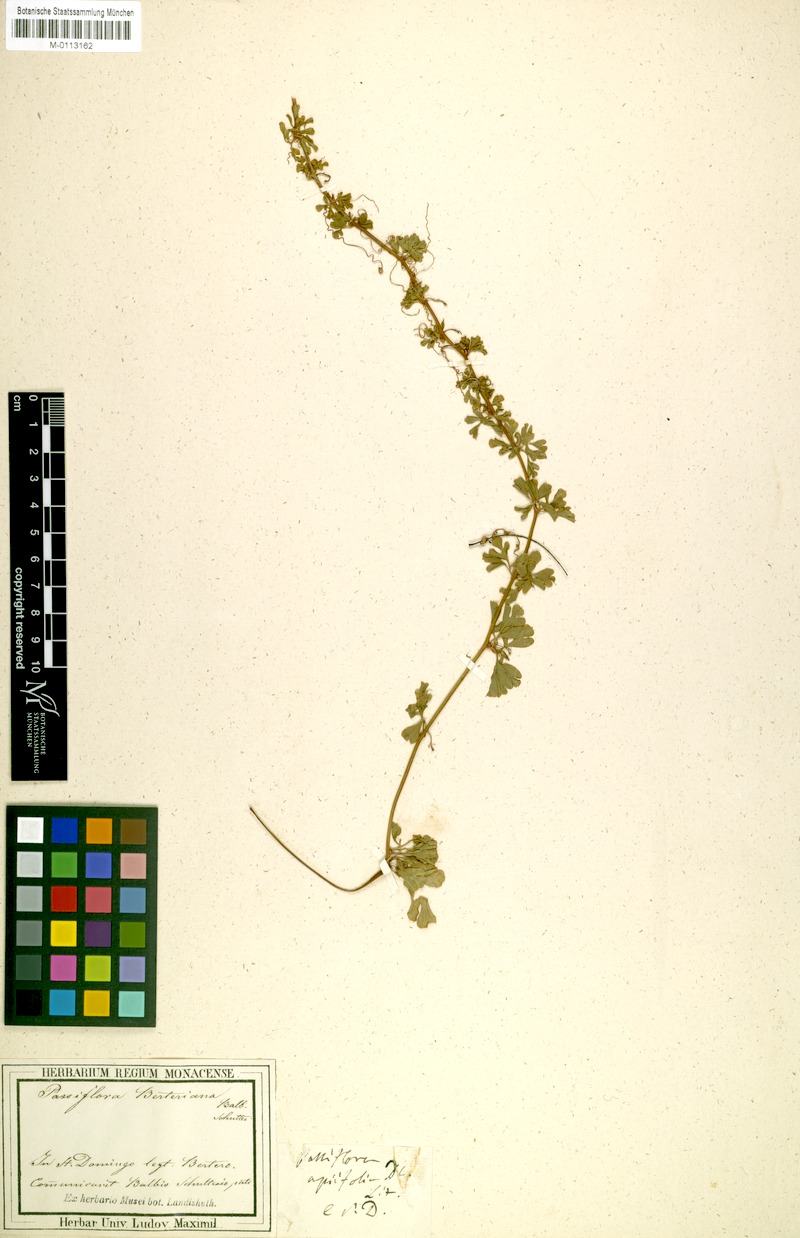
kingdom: Plantae
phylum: Tracheophyta
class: Magnoliopsida
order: Malpighiales
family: Passifloraceae
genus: Passiflora
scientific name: Passiflora berteroana
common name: Pasionaria de cercas
